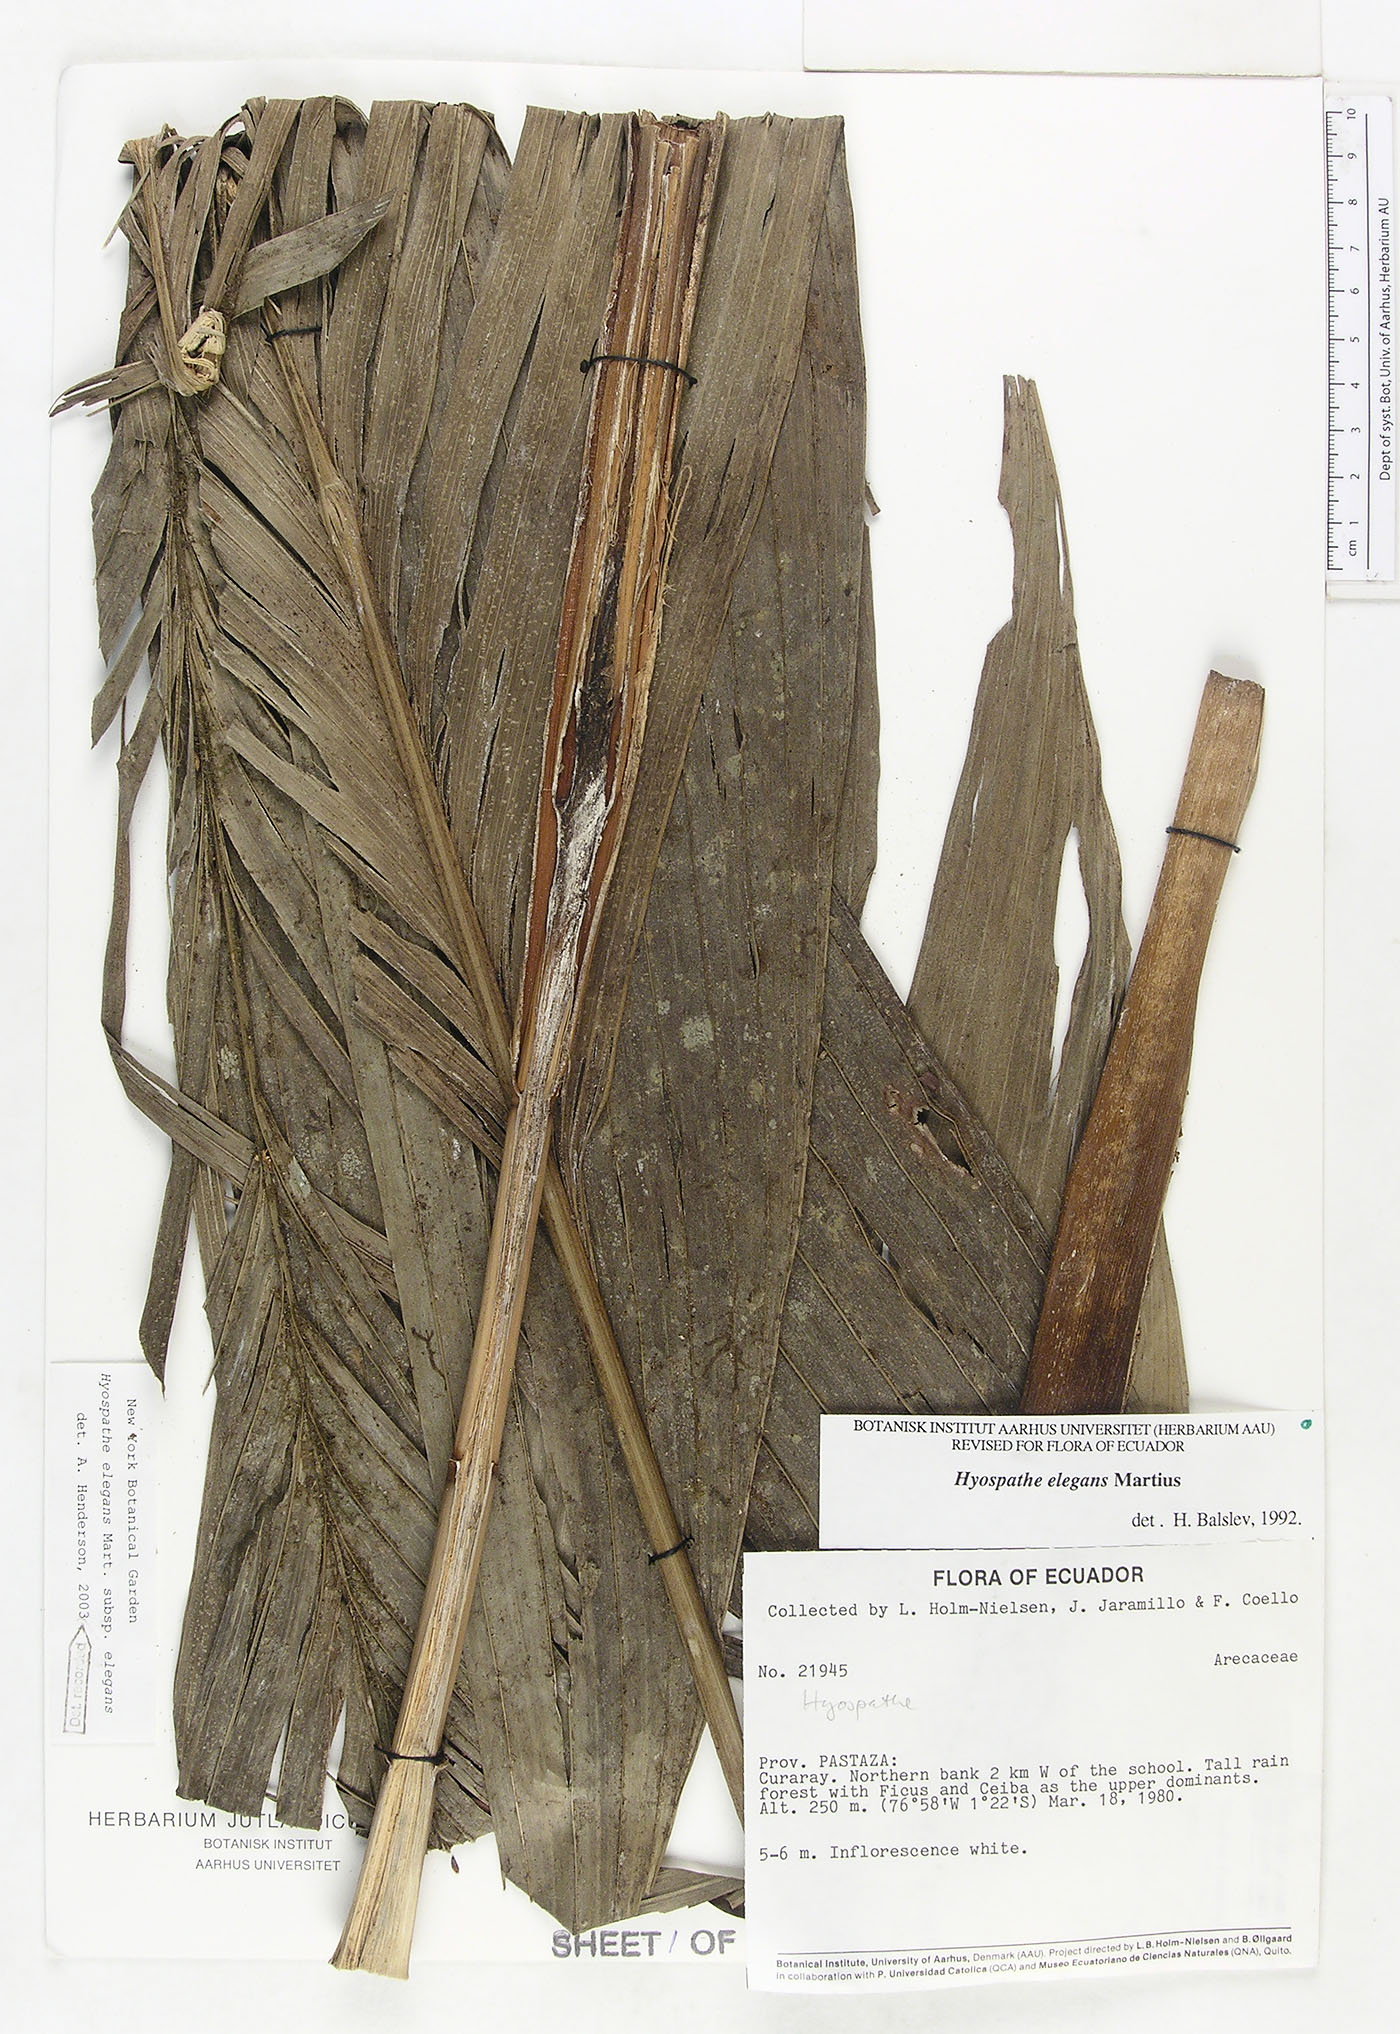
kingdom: Plantae
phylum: Tracheophyta
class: Liliopsida
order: Arecales
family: Arecaceae
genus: Hyospathe
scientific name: Hyospathe elegans
